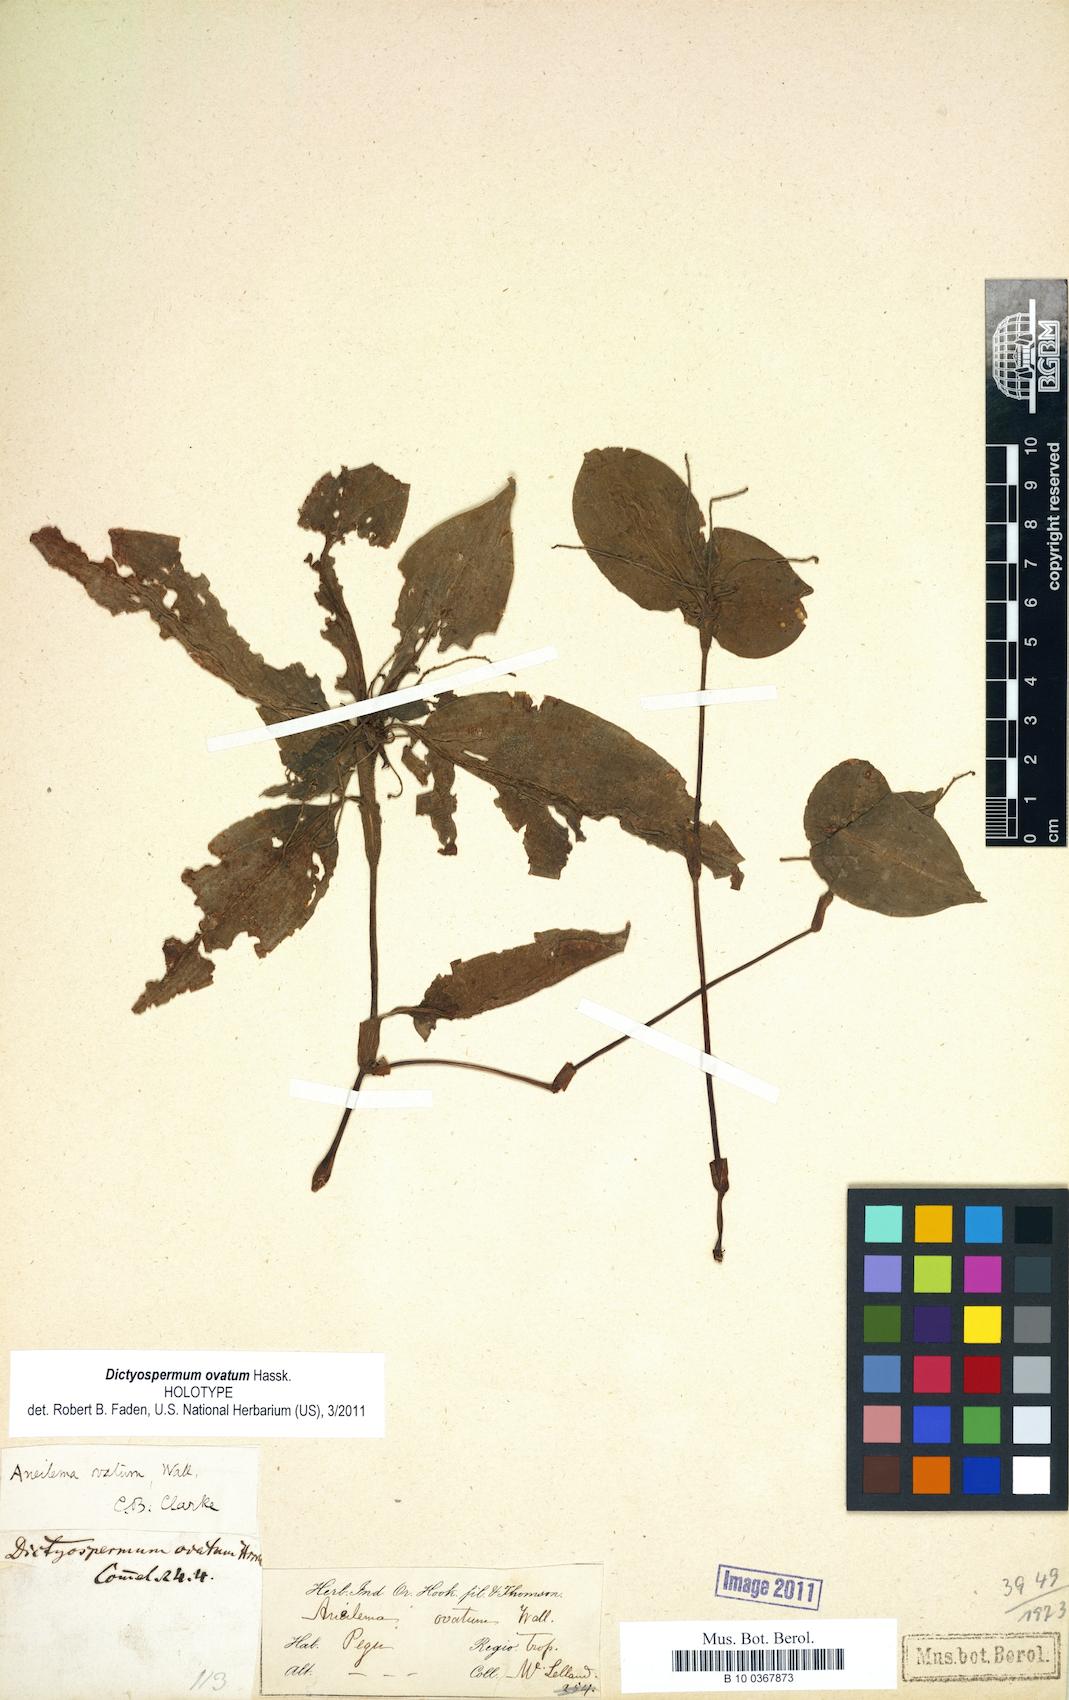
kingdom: Plantae
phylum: Tracheophyta
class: Liliopsida
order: Commelinales
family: Commelinaceae
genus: Aneilema
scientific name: Aneilema ovatum
